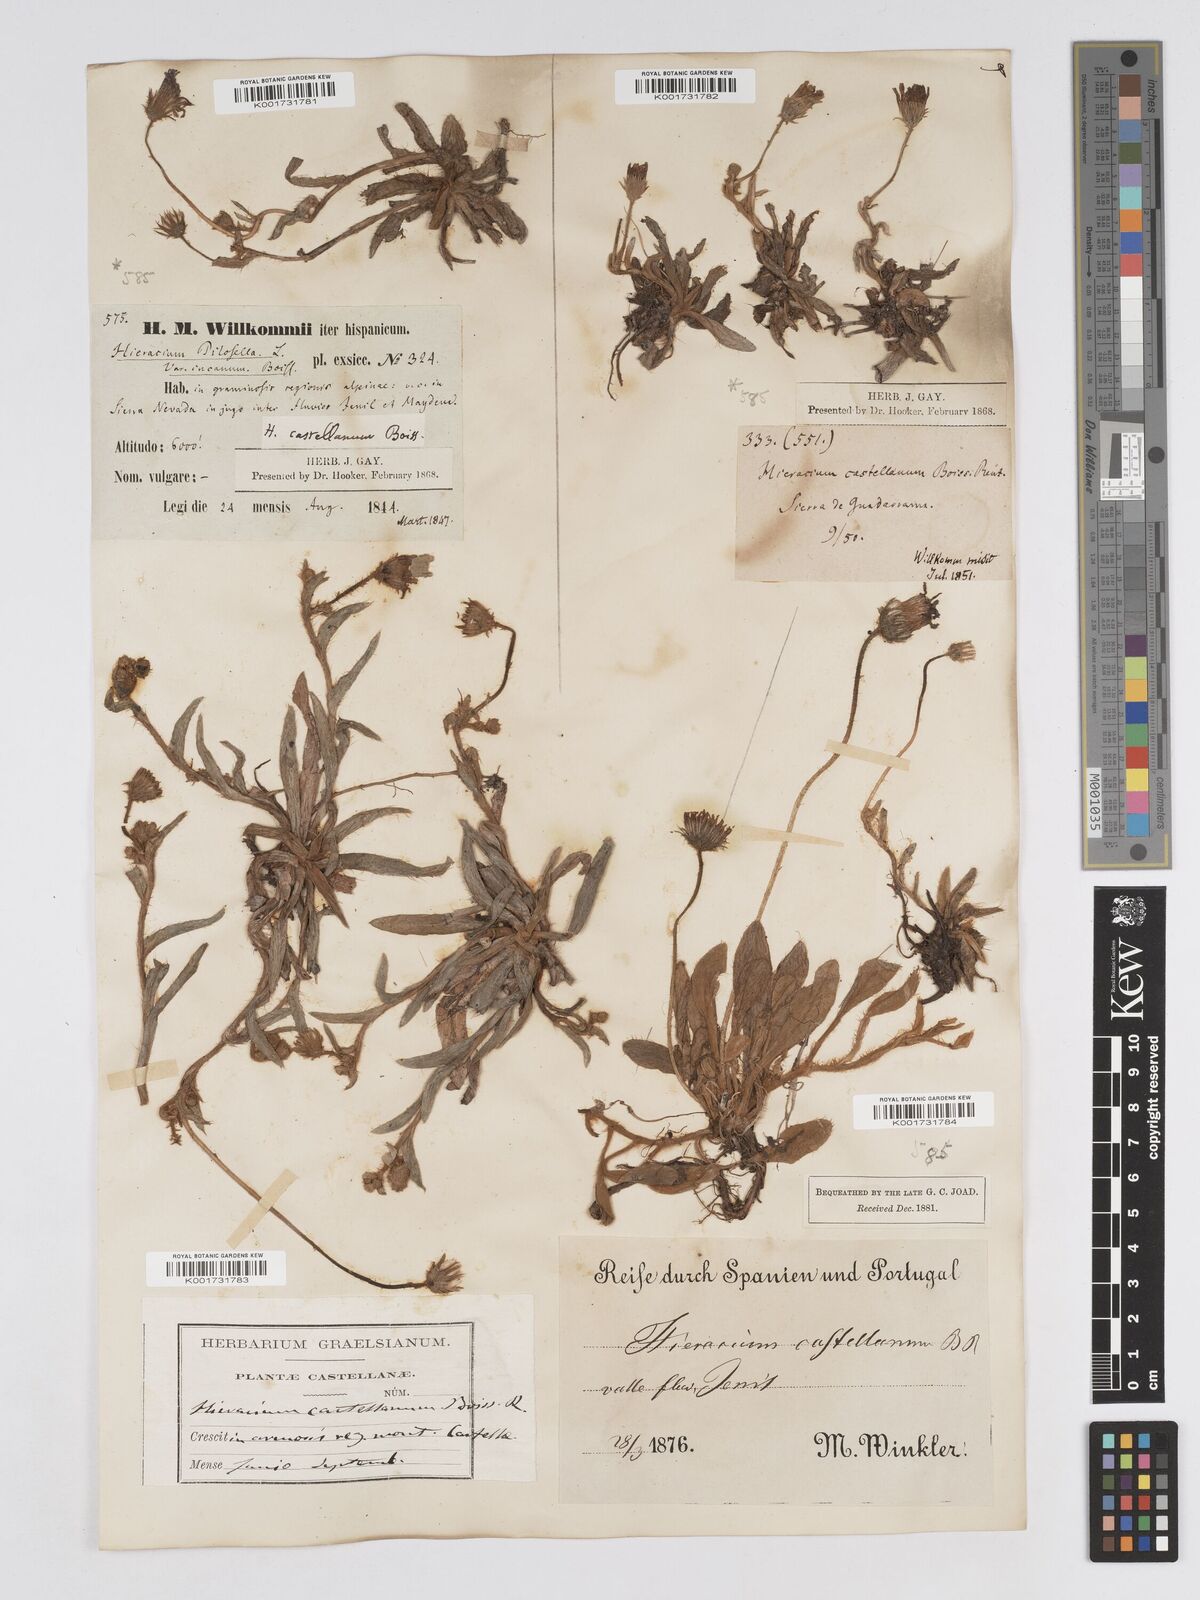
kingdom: Plantae
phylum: Tracheophyta
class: Magnoliopsida
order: Asterales
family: Asteraceae
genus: Pilosella
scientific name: Pilosella castellana
